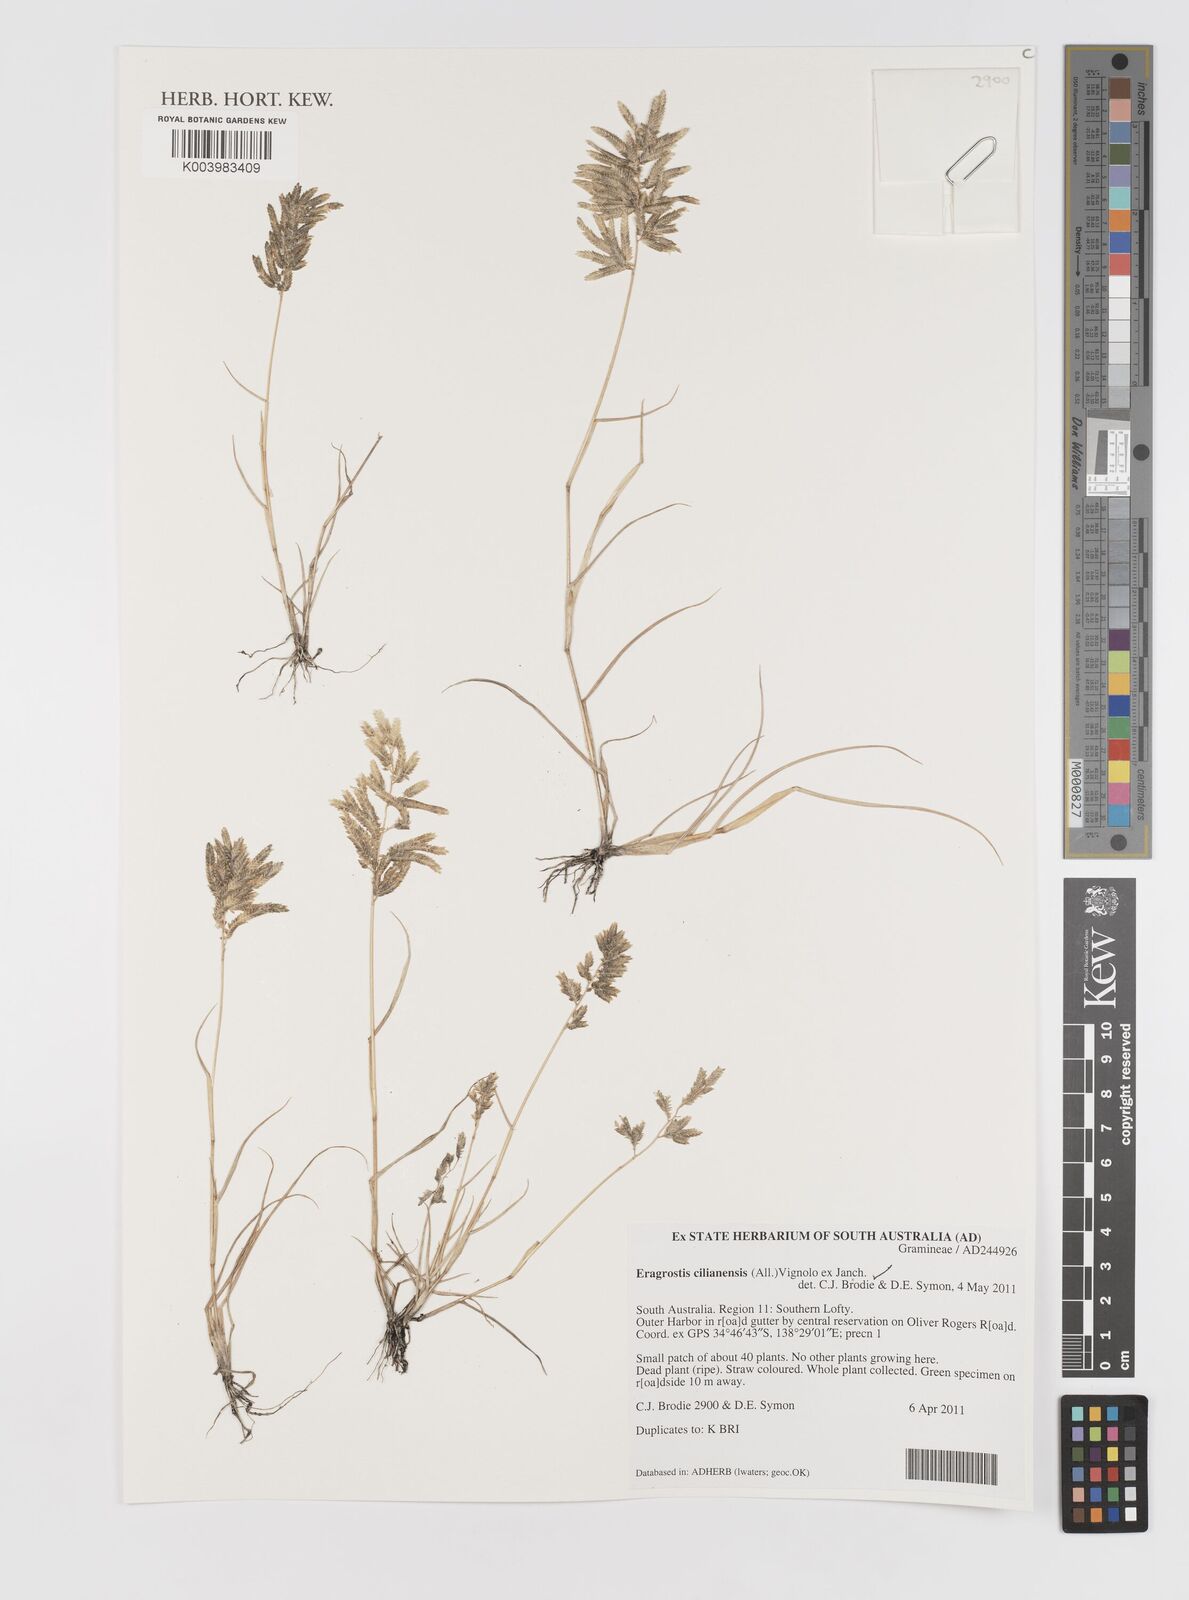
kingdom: Plantae
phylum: Tracheophyta
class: Liliopsida
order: Poales
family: Poaceae
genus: Eragrostis
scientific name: Eragrostis cilianensis
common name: Stinkgrass
